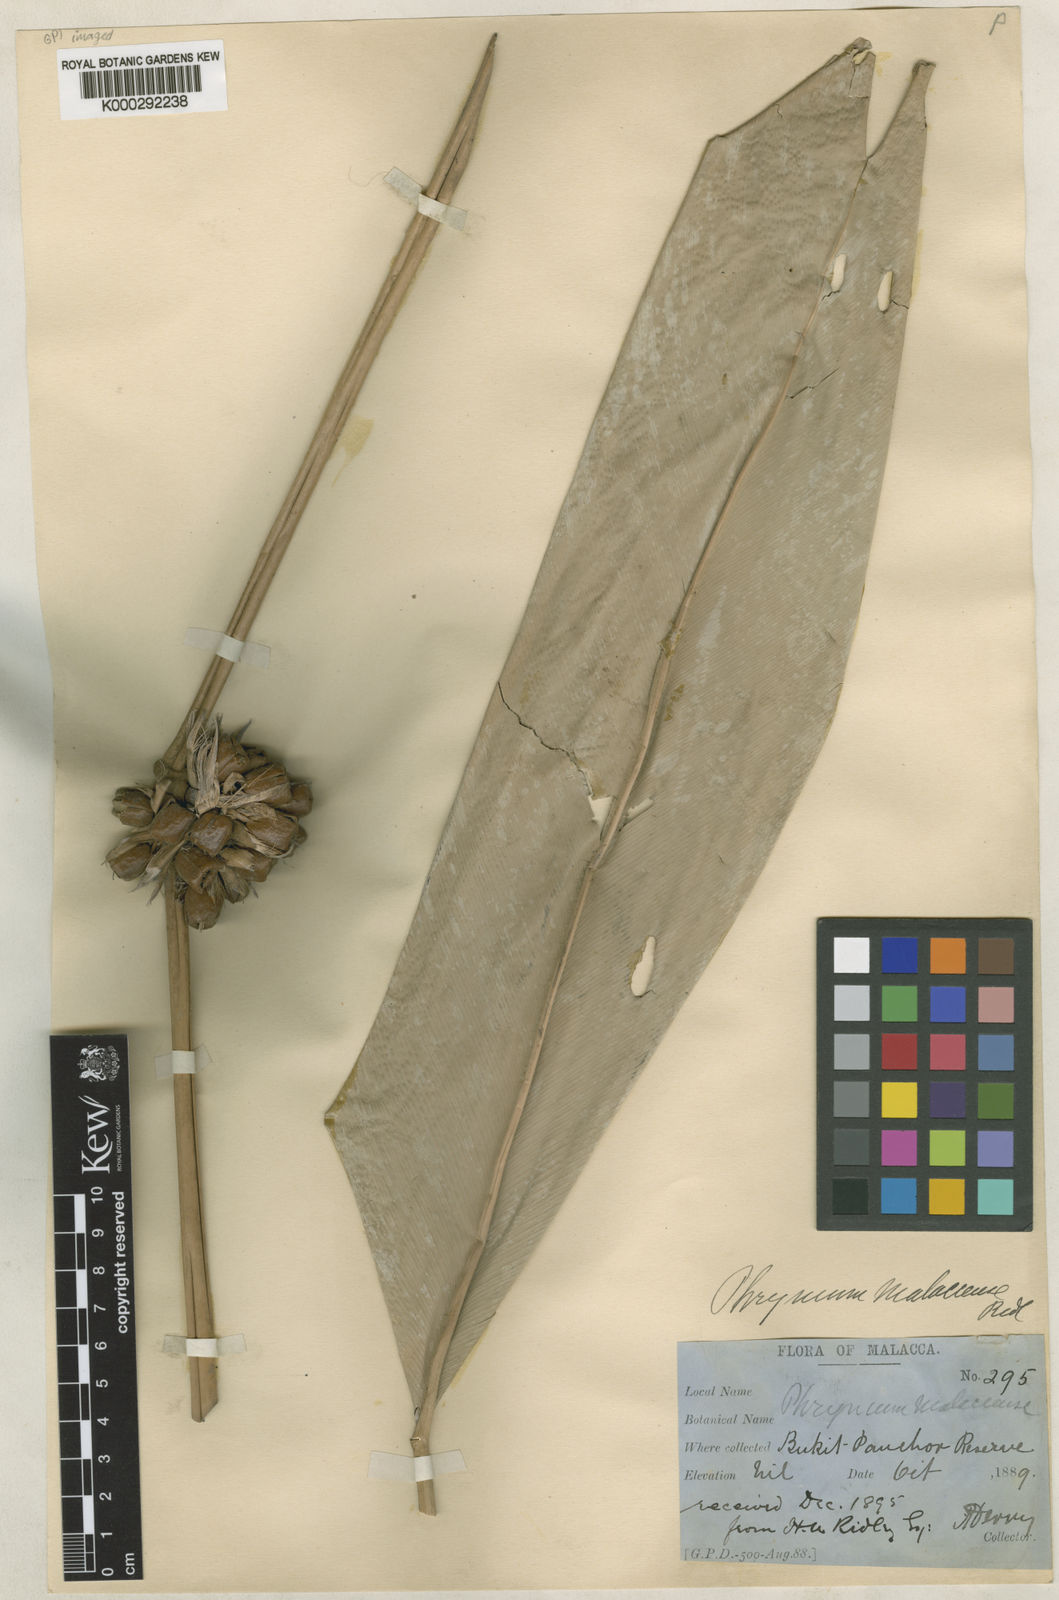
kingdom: Plantae
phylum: Tracheophyta
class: Liliopsida
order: Zingiberales
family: Marantaceae
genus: Phrynium
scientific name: Phrynium pubinerve
